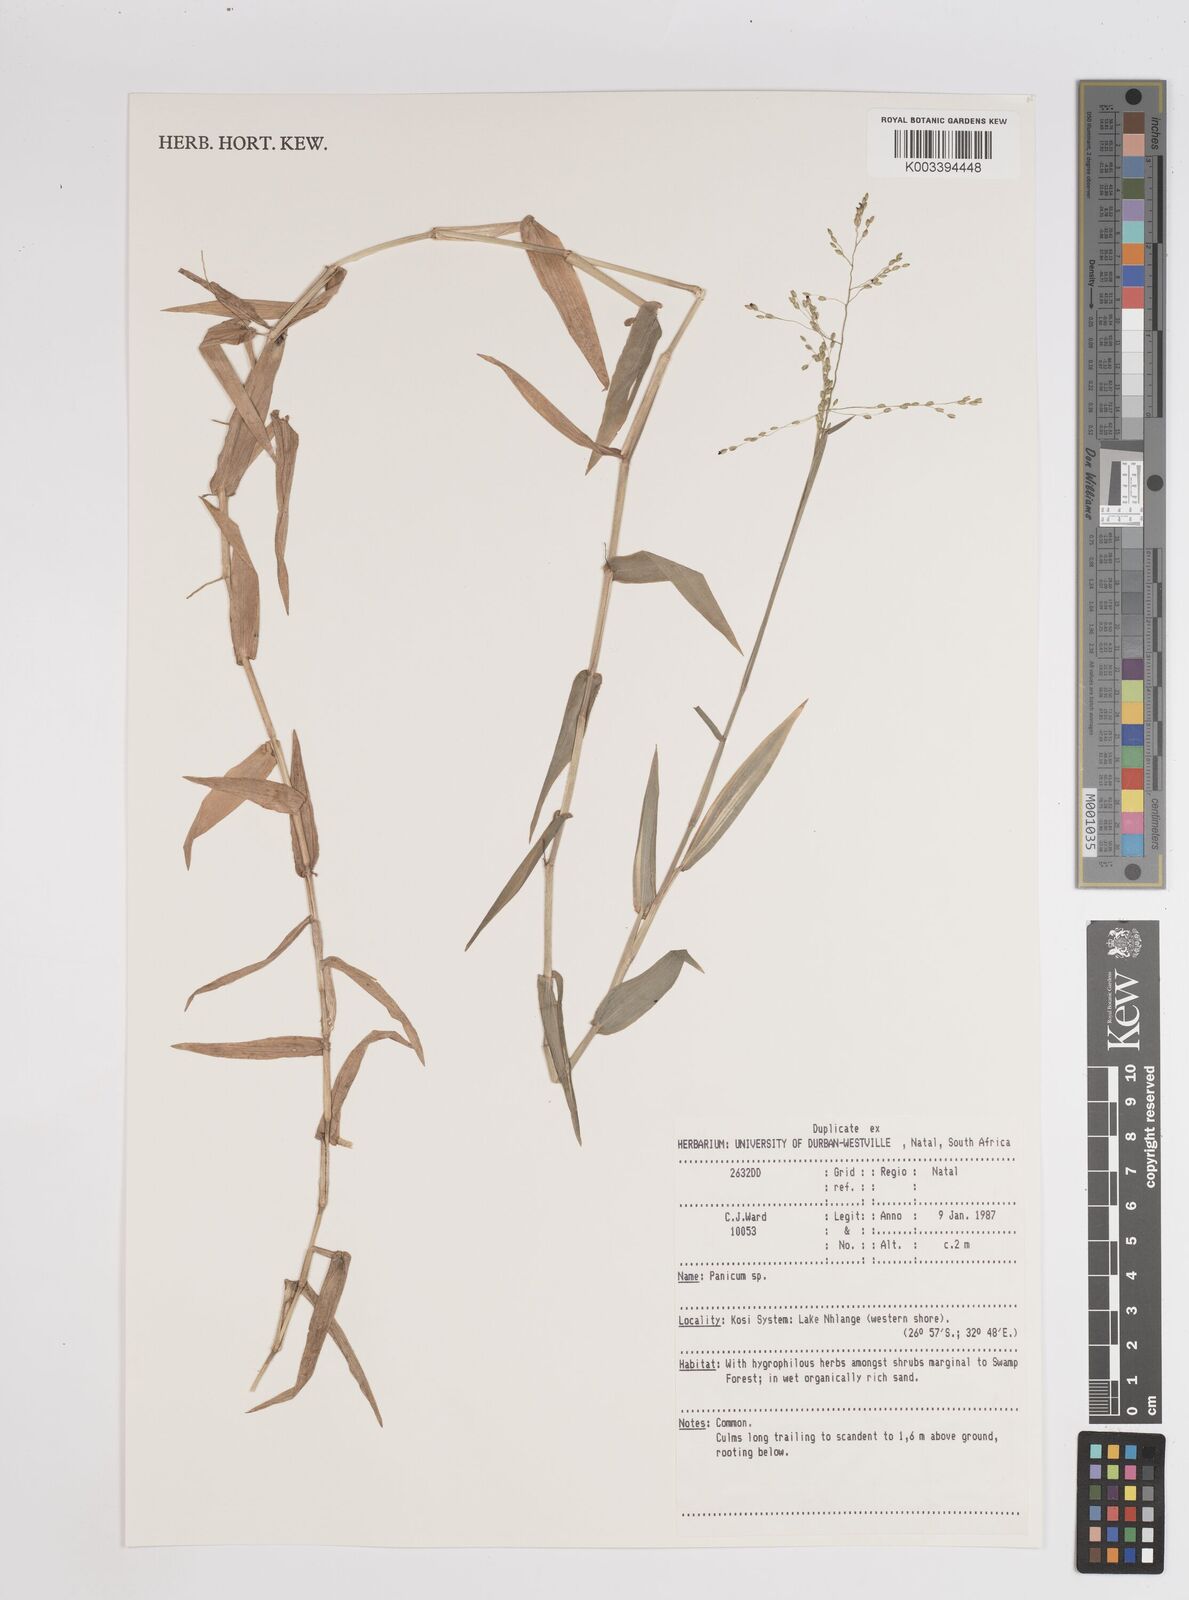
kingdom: Plantae
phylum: Tracheophyta
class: Liliopsida
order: Poales
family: Poaceae
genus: Adenochloa
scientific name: Adenochloa pectinella
